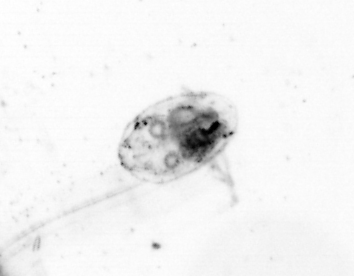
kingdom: Animalia
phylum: Chordata
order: Copelata
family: Fritillariidae
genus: Appendicularia
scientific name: Appendicularia
